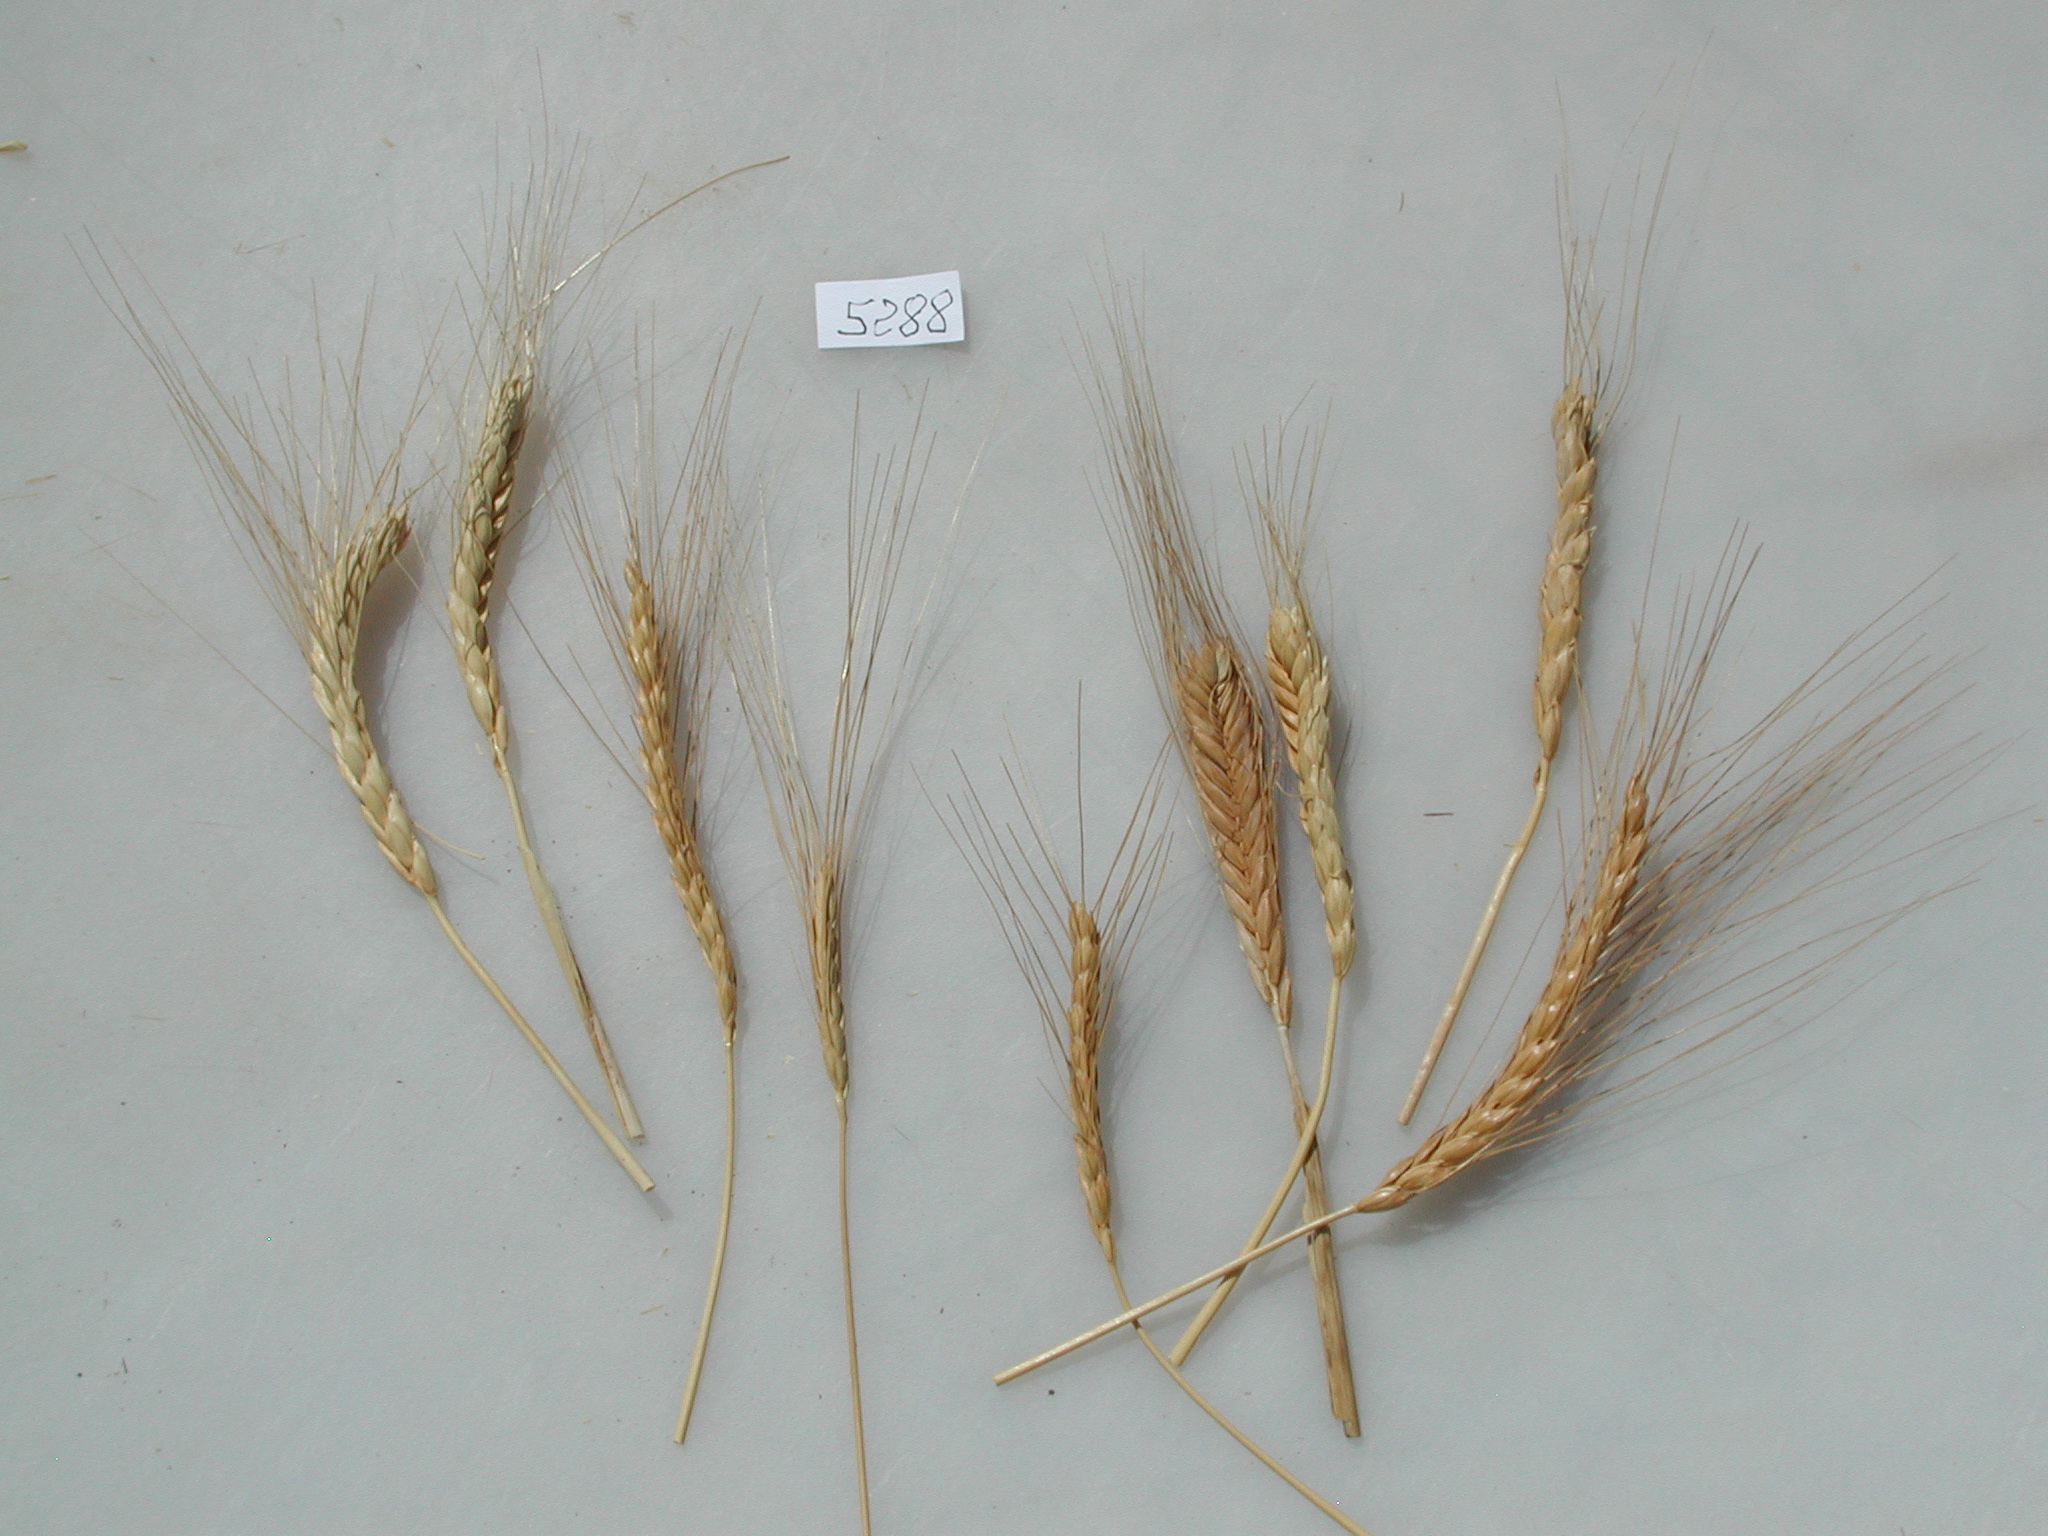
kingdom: Plantae
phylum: Tracheophyta
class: Liliopsida
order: Poales
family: Poaceae
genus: Triticum
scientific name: Triticum turgidum
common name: Emmer Wheat
